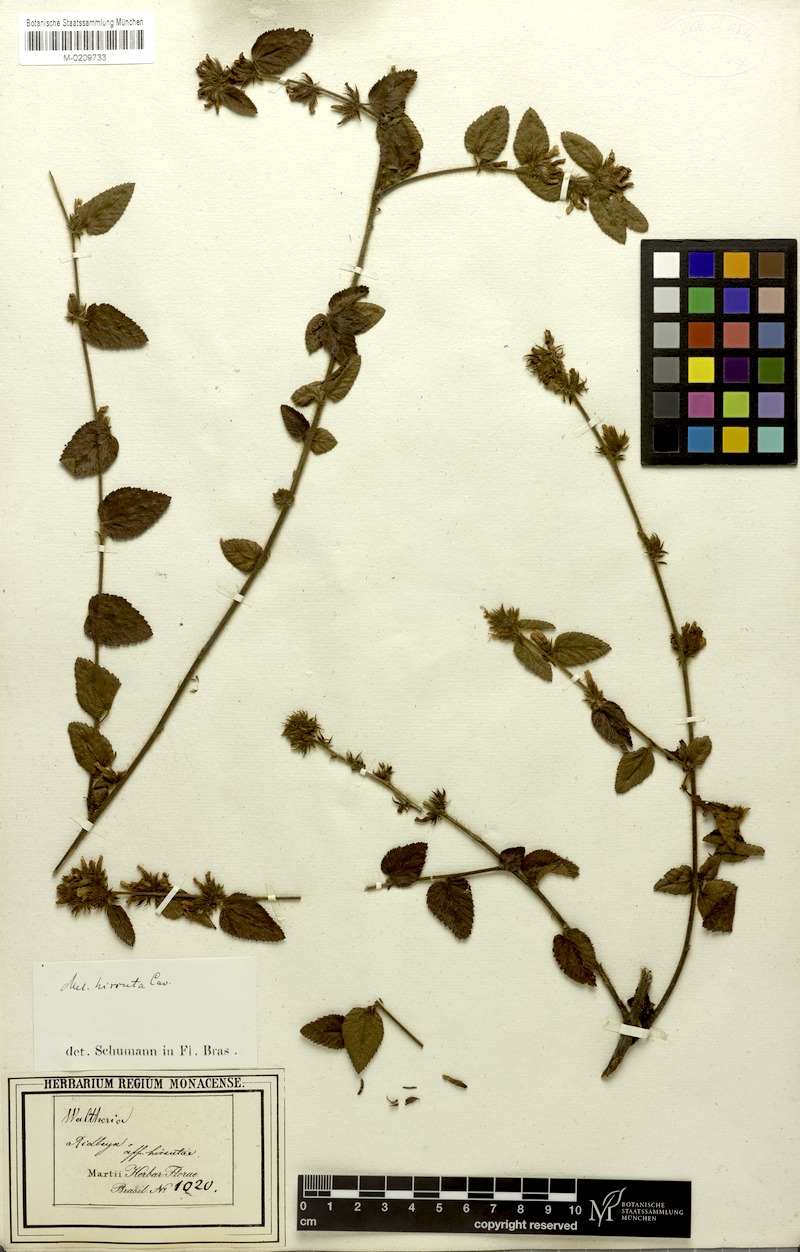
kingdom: Plantae
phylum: Tracheophyta
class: Magnoliopsida
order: Malvales
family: Malvaceae
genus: Melochia
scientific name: Melochia spicata
